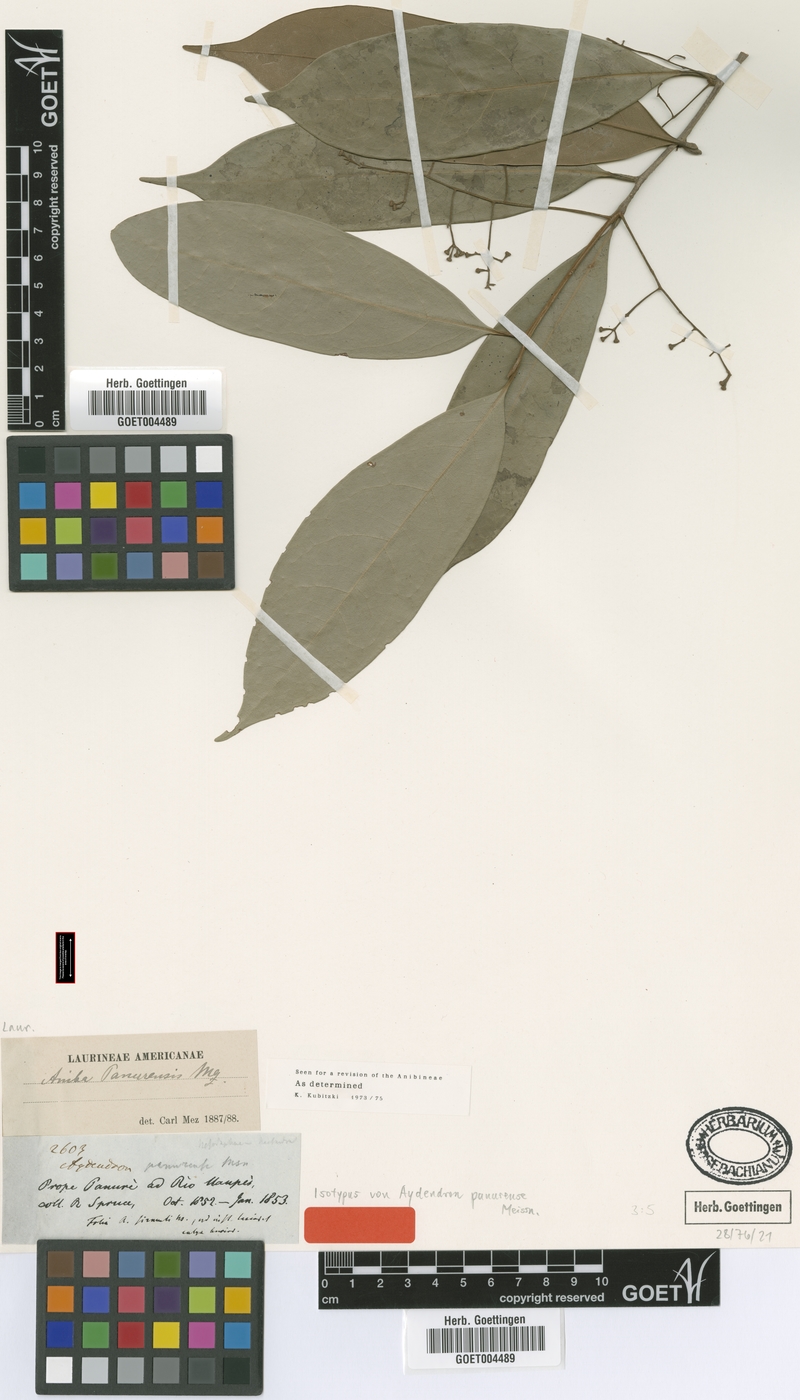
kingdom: Plantae
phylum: Tracheophyta
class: Magnoliopsida
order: Laurales
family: Lauraceae
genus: Aniba
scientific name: Aniba panurensis
